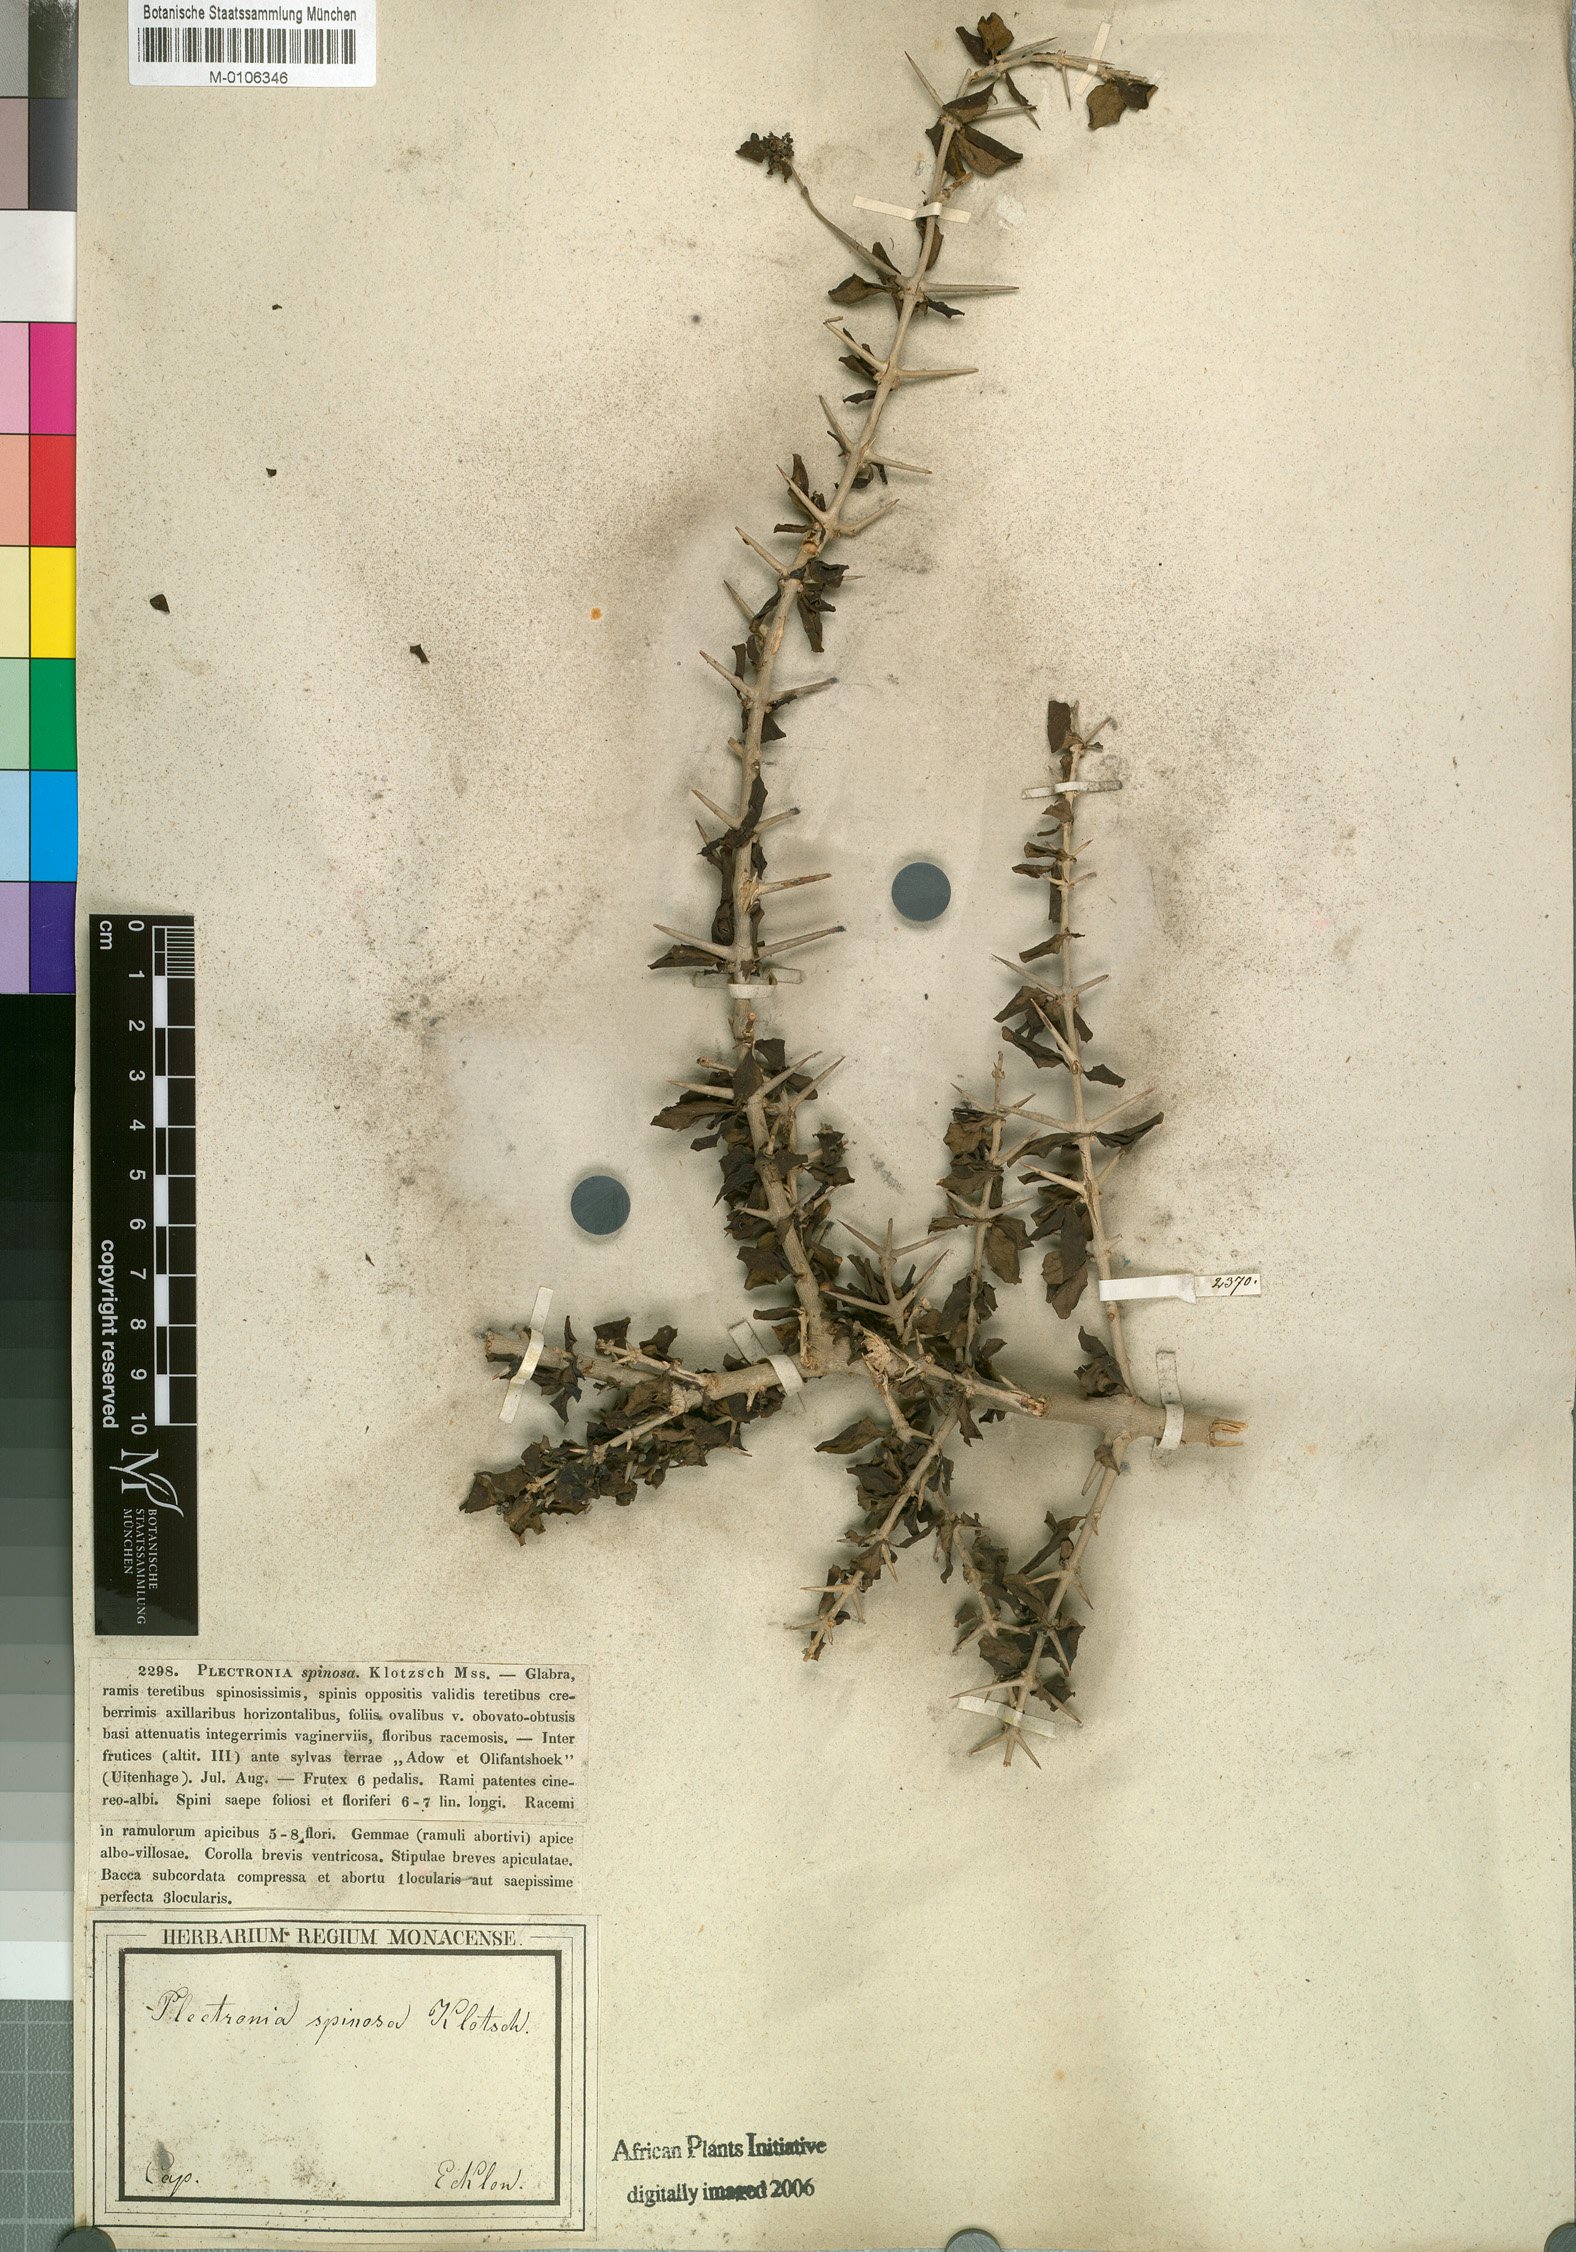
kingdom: Plantae
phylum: Tracheophyta
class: Magnoliopsida
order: Gentianales
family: Rubiaceae
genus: Canthium
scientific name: Canthium spinosum
